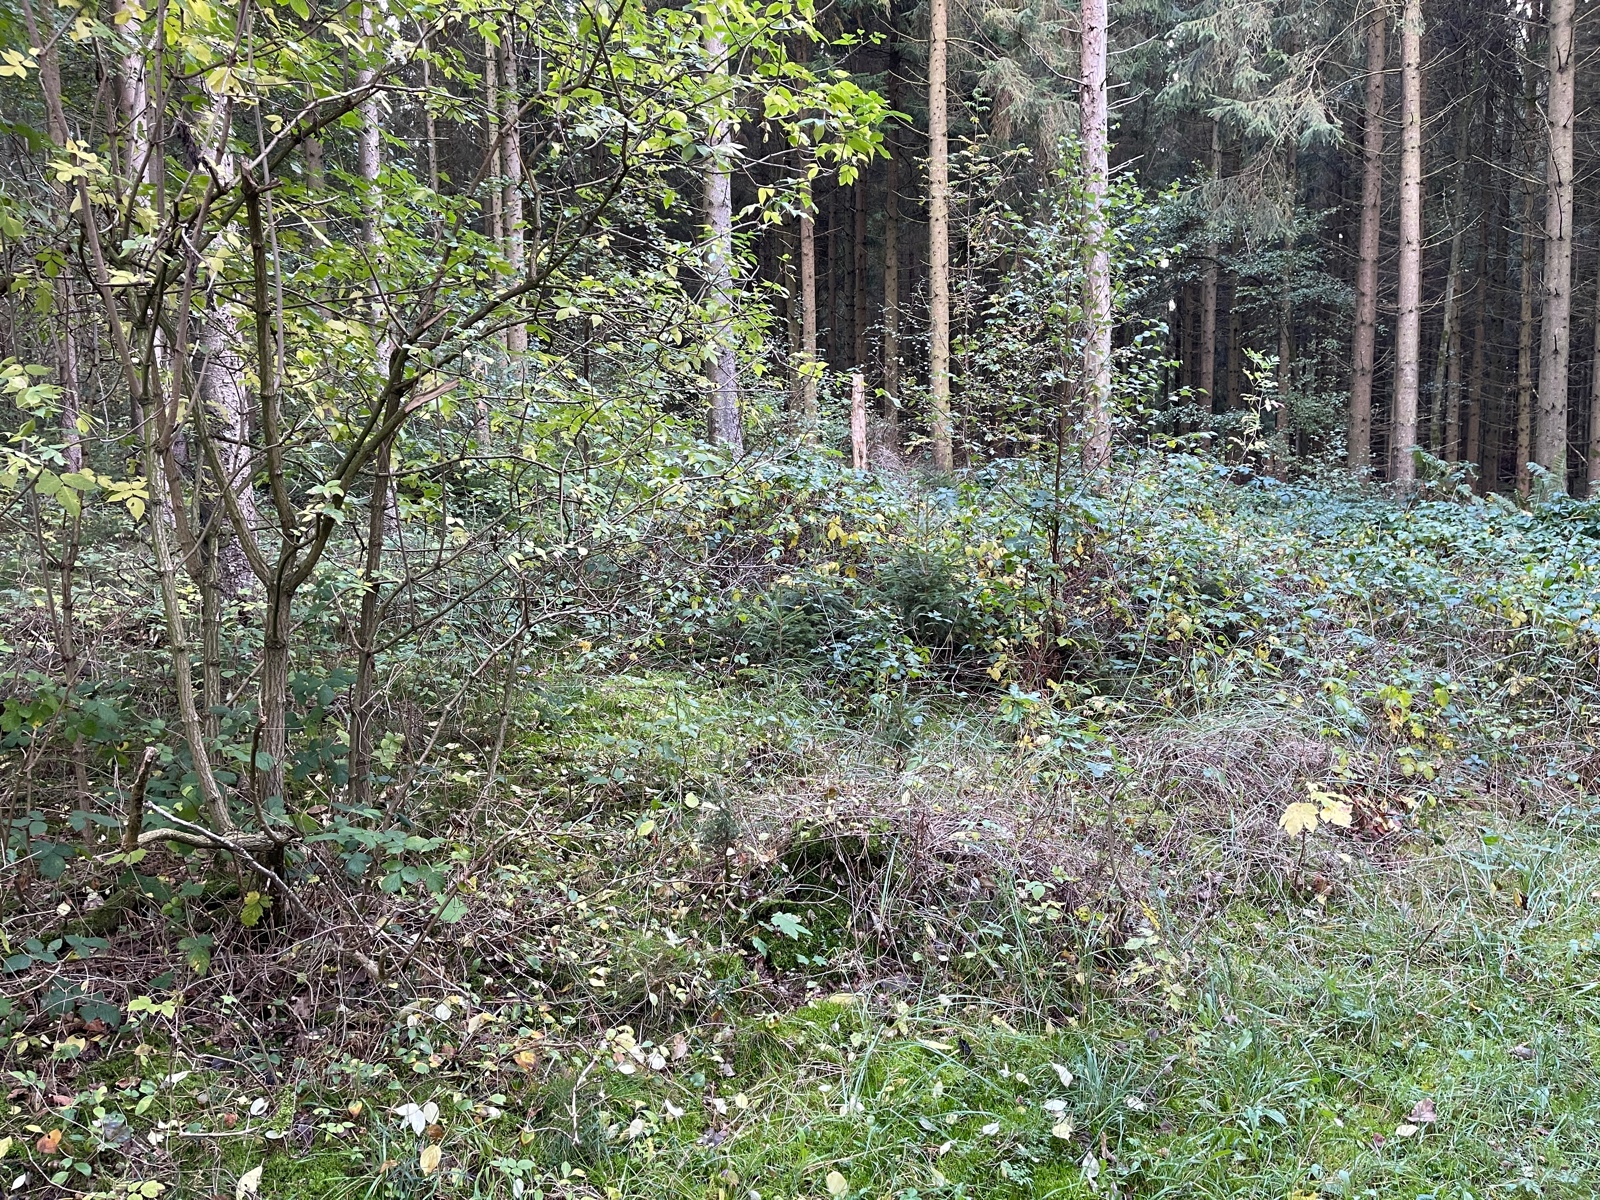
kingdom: Fungi
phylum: Basidiomycota
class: Agaricomycetes
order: Agaricales
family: Cortinariaceae
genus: Cortinarius
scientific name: Cortinarius denigratoides
